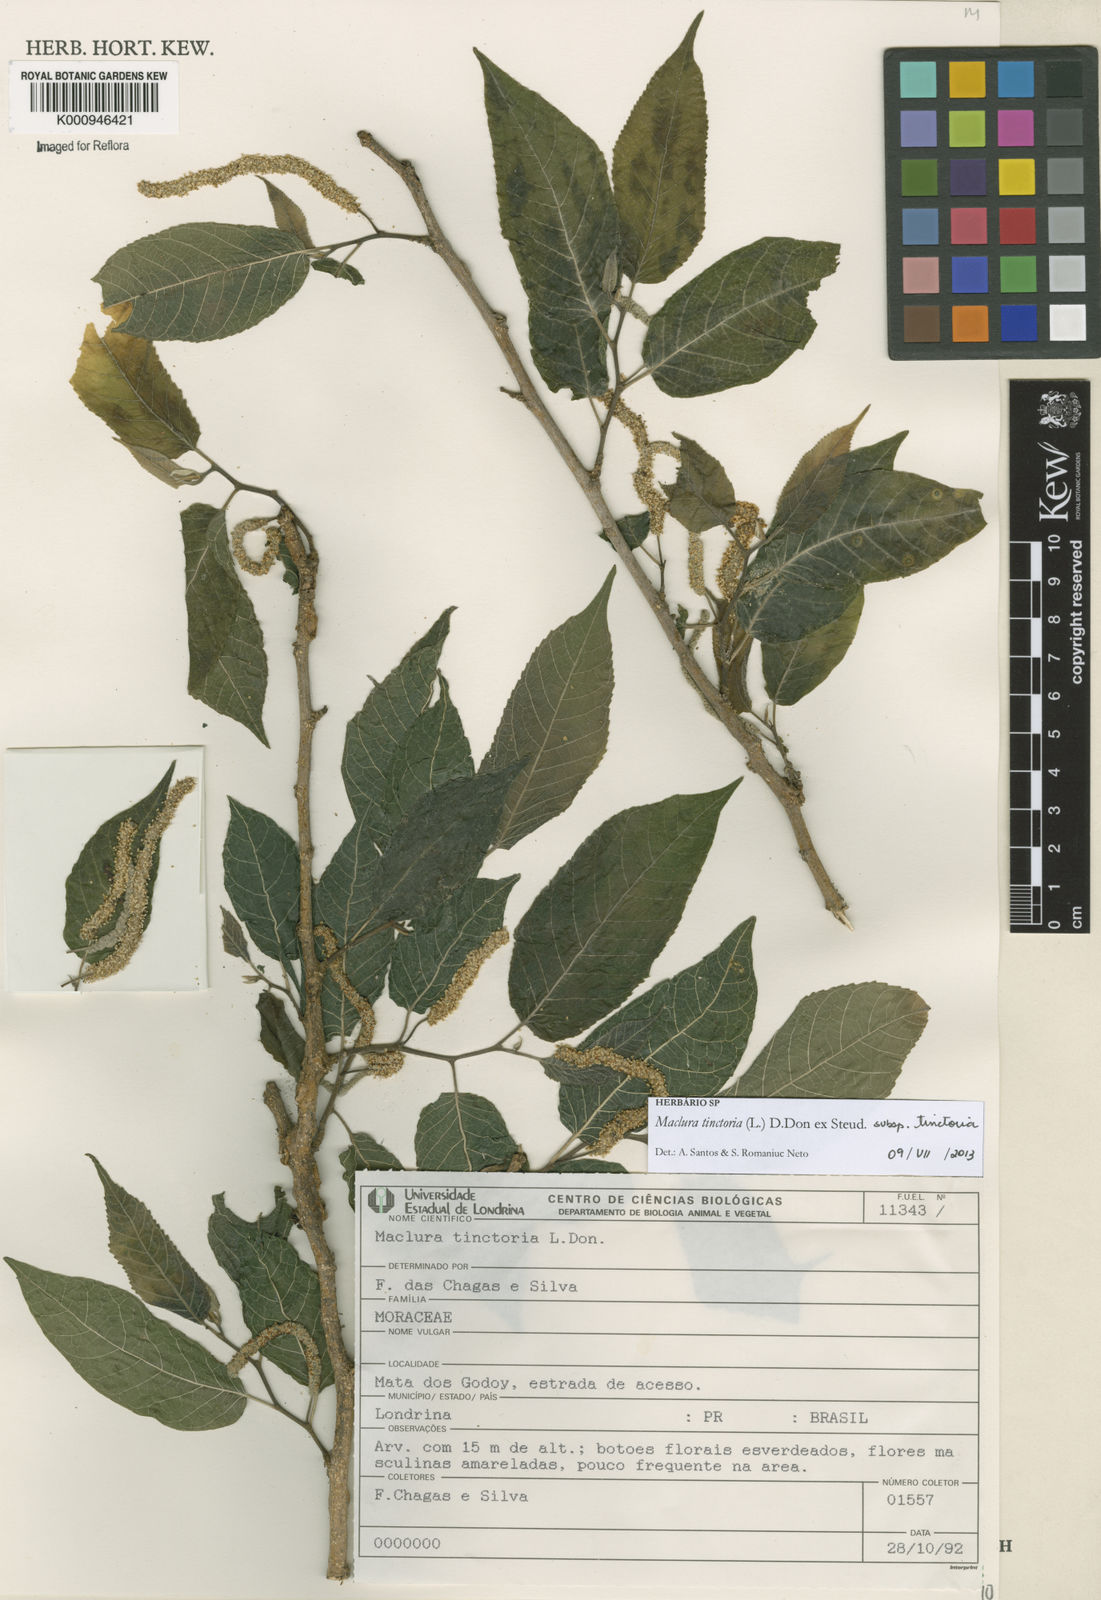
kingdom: Plantae
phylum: Tracheophyta
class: Magnoliopsida
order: Rosales
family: Moraceae
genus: Maclura
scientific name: Maclura
